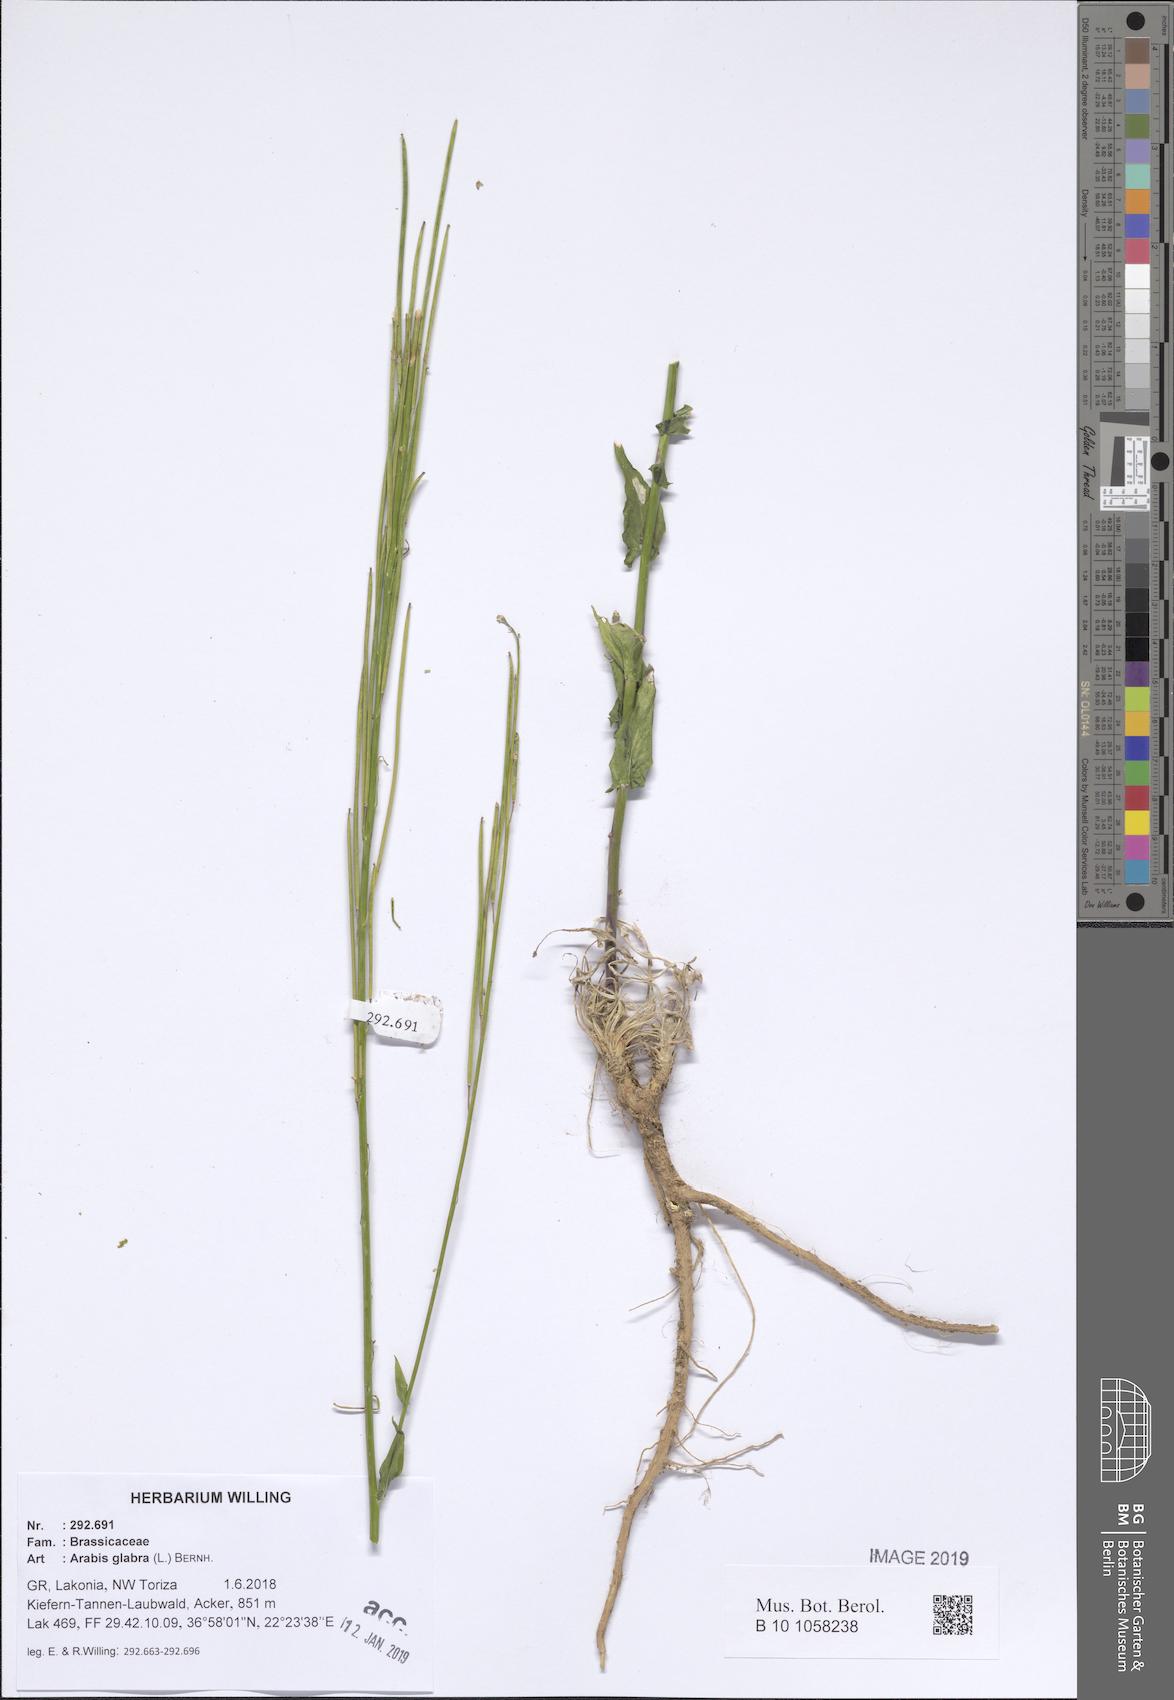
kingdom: Plantae
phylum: Tracheophyta
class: Magnoliopsida
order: Brassicales
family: Brassicaceae
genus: Turritis
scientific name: Turritis glabra
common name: Tower rockcress
